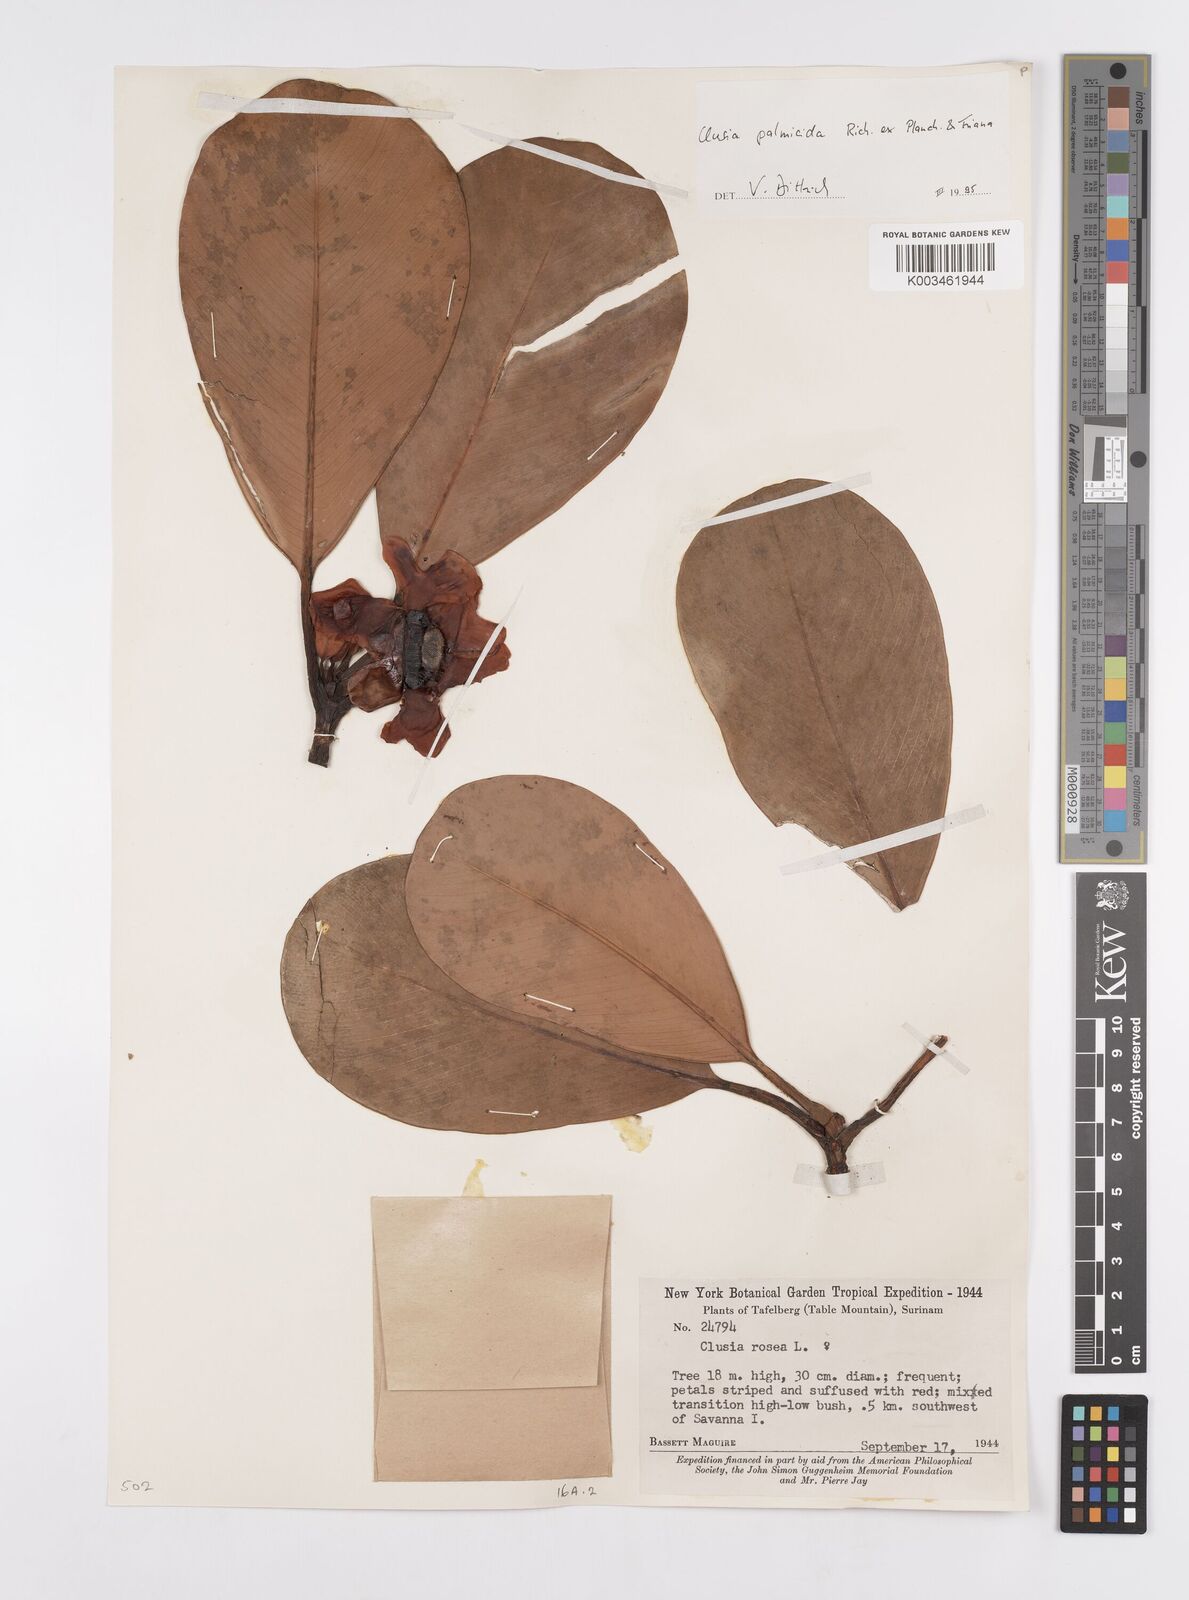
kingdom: Plantae
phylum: Tracheophyta
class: Magnoliopsida
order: Malpighiales
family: Clusiaceae
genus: Clusia
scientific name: Clusia palmicida
